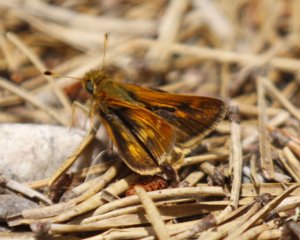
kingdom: Animalia
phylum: Arthropoda
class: Insecta
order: Lepidoptera
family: Hesperiidae
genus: Polites
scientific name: Polites coras
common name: Peck's Skipper
